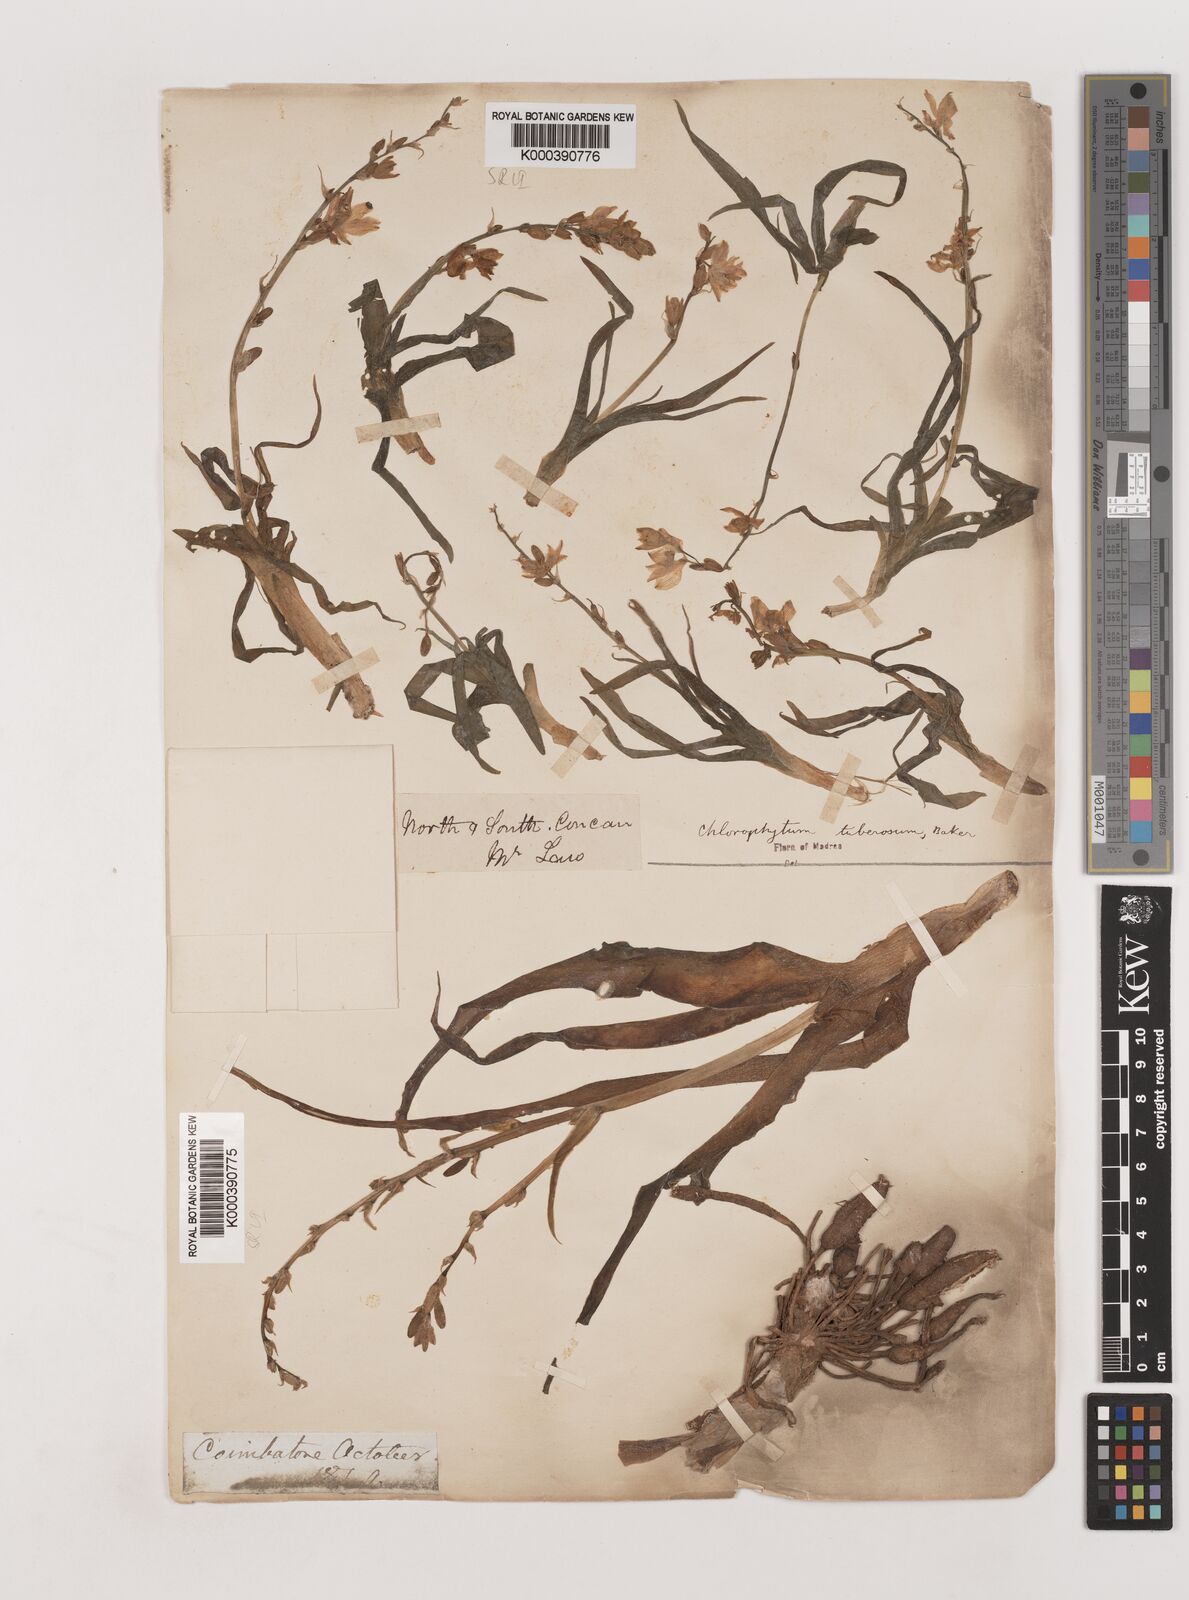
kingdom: Plantae
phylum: Tracheophyta
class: Liliopsida
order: Asparagales
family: Asparagaceae
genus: Chlorophytum
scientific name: Chlorophytum tuberosum
